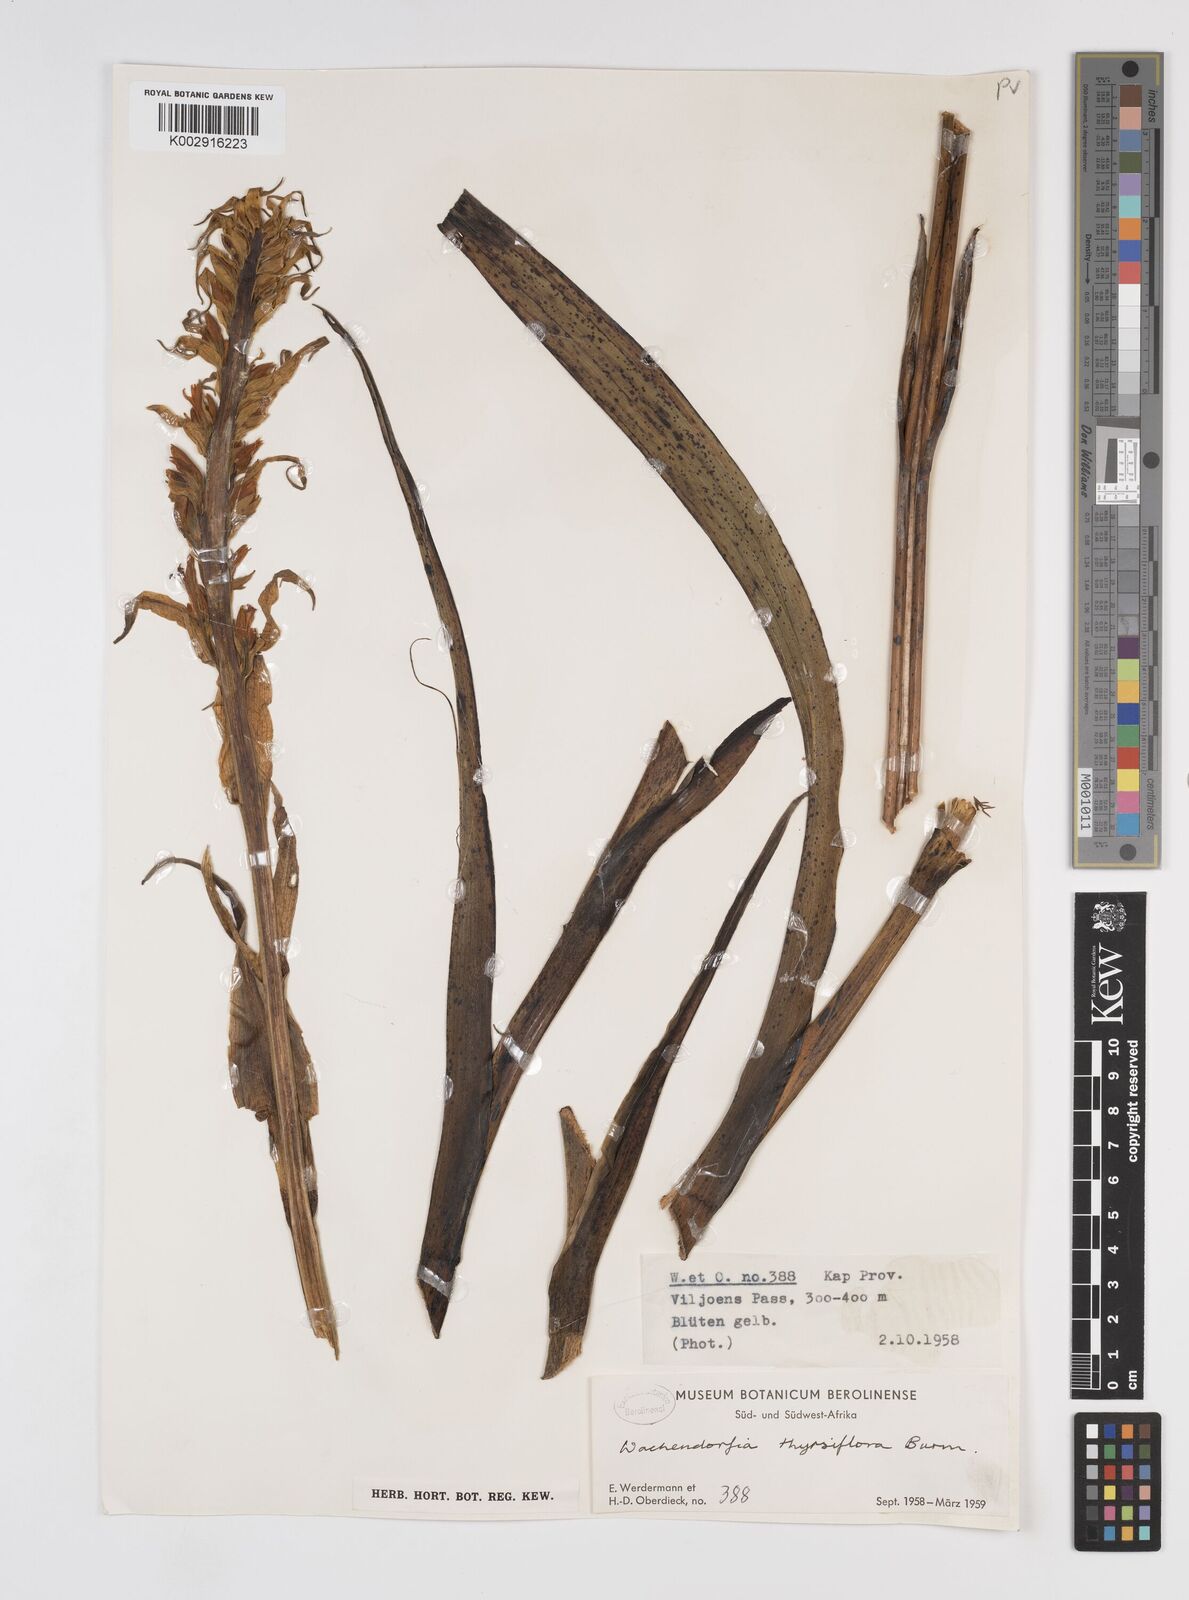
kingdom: Plantae
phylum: Tracheophyta
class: Liliopsida
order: Commelinales
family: Haemodoraceae
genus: Wachendorfia
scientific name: Wachendorfia thyrsiflora
